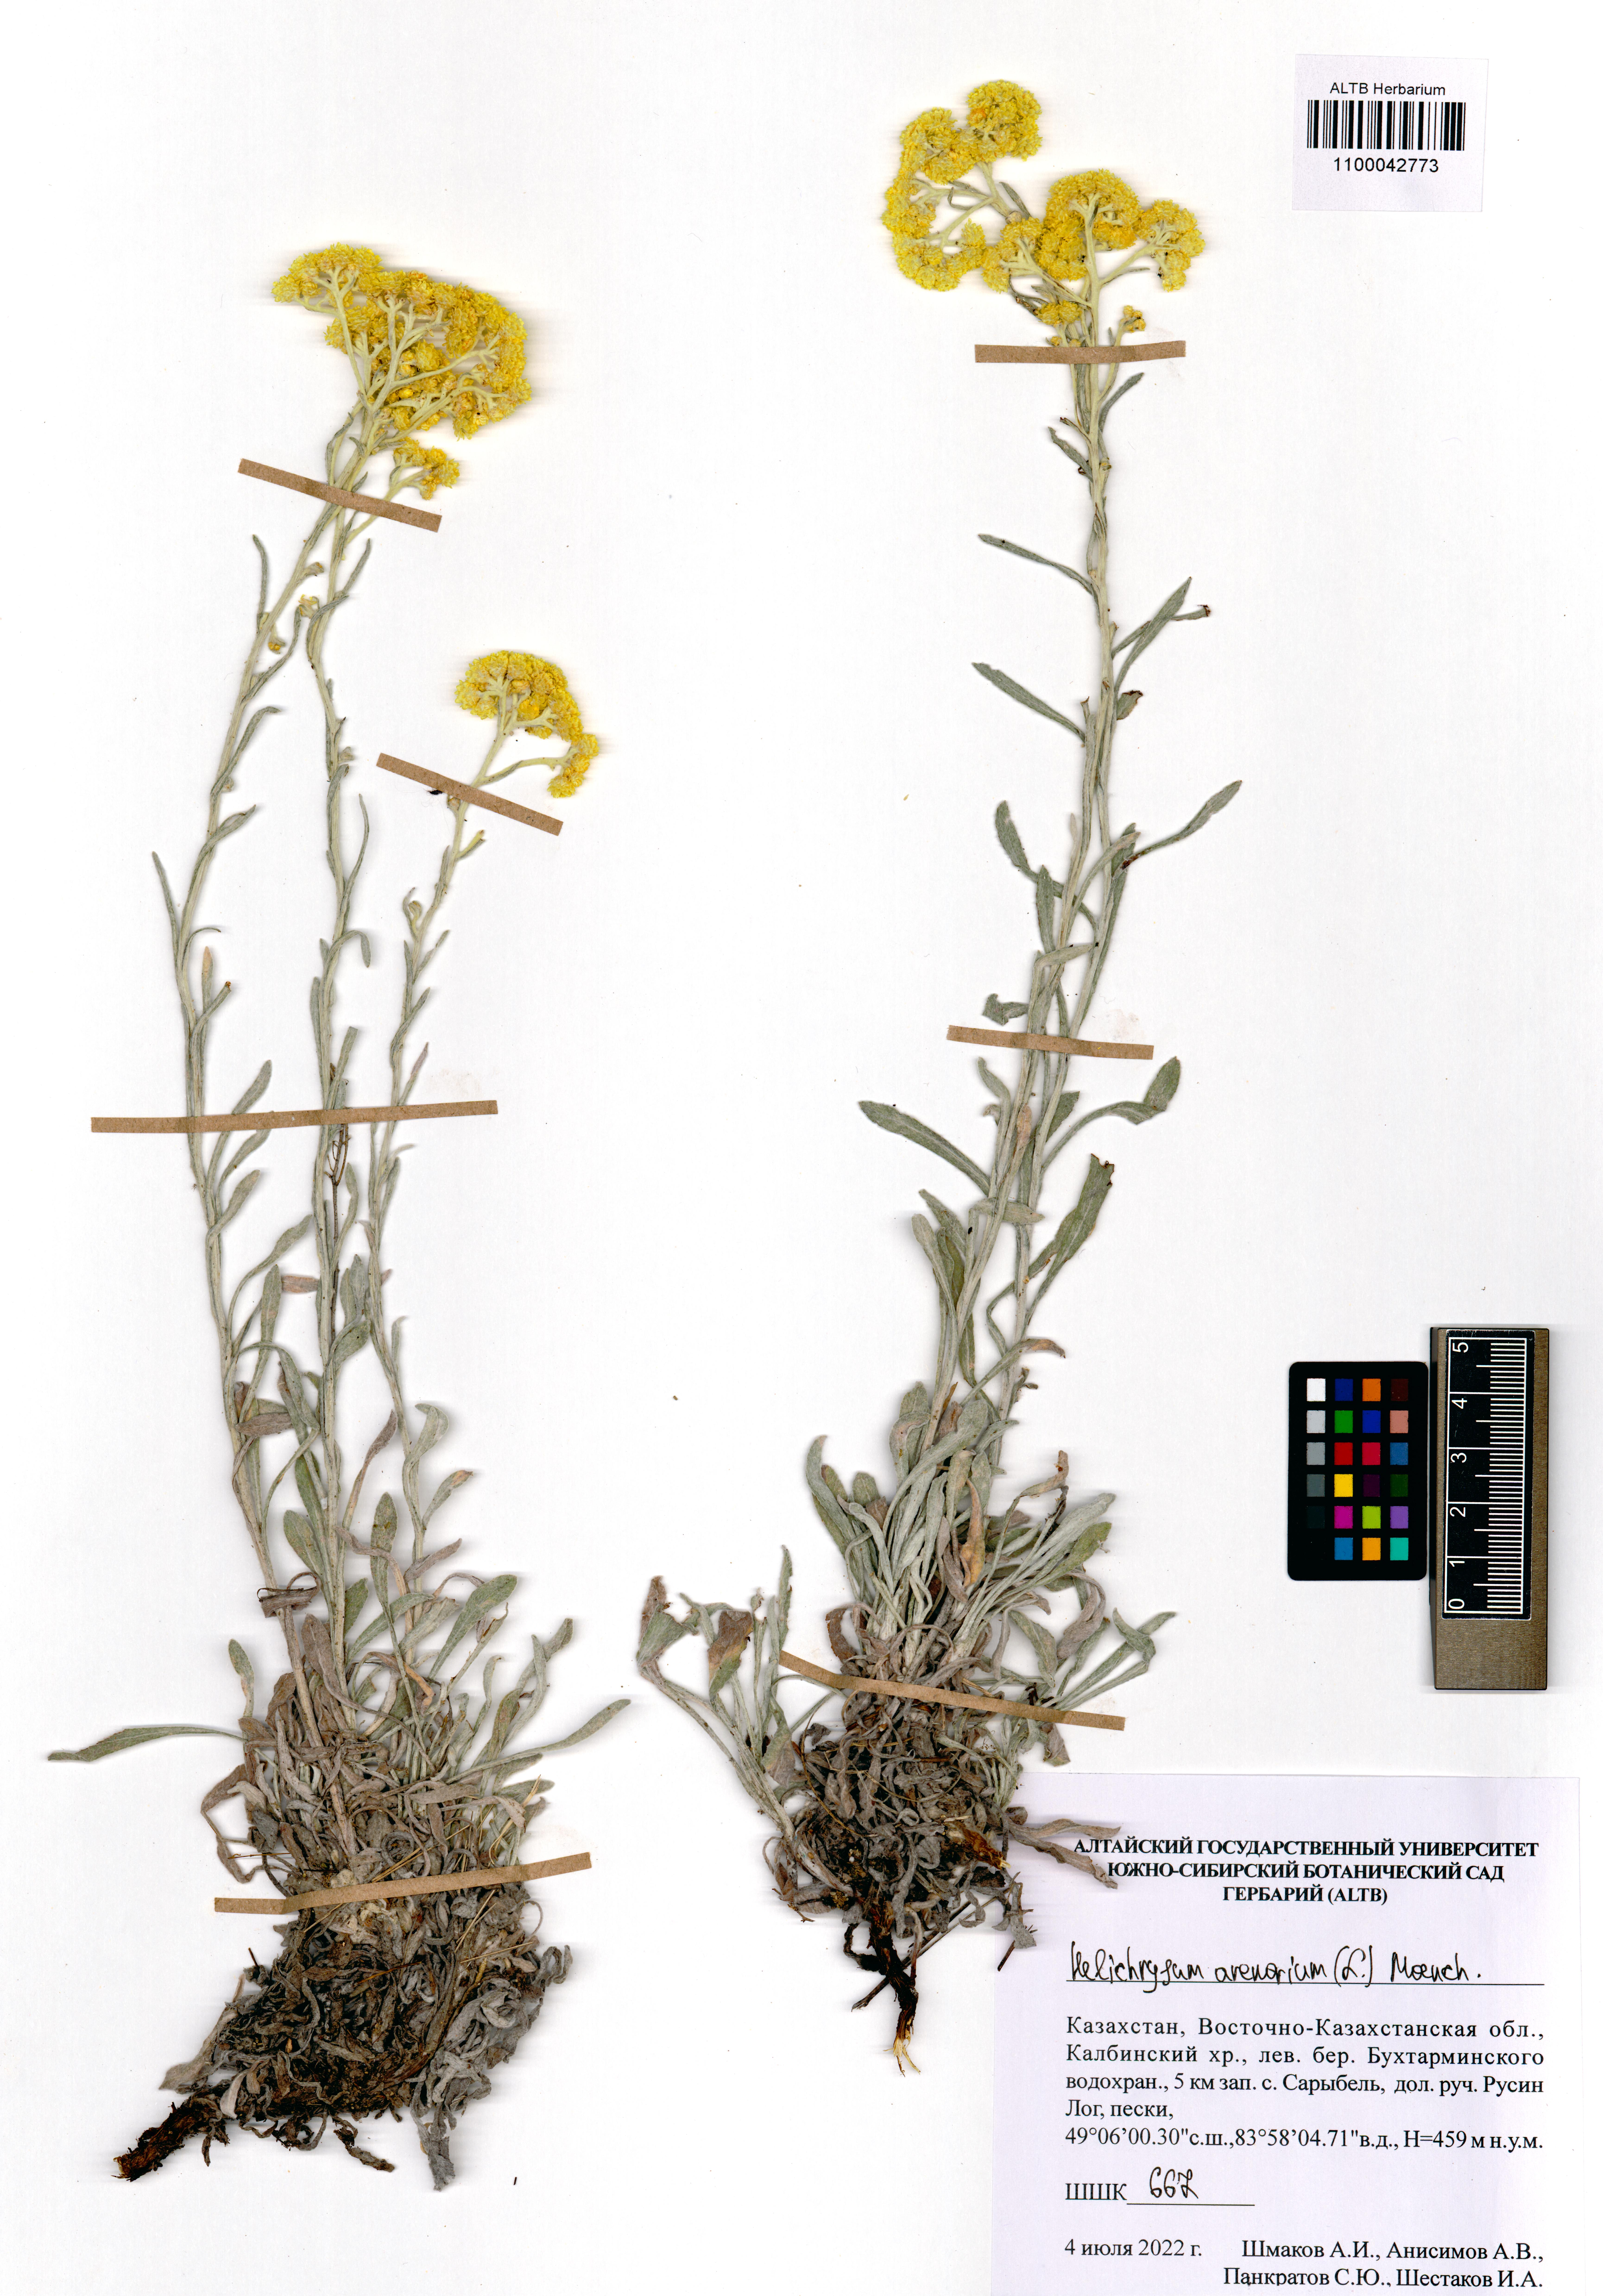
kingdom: Plantae
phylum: Tracheophyta
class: Magnoliopsida
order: Asterales
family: Asteraceae
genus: Helichrysum
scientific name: Helichrysum arenarium
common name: Strawflower
